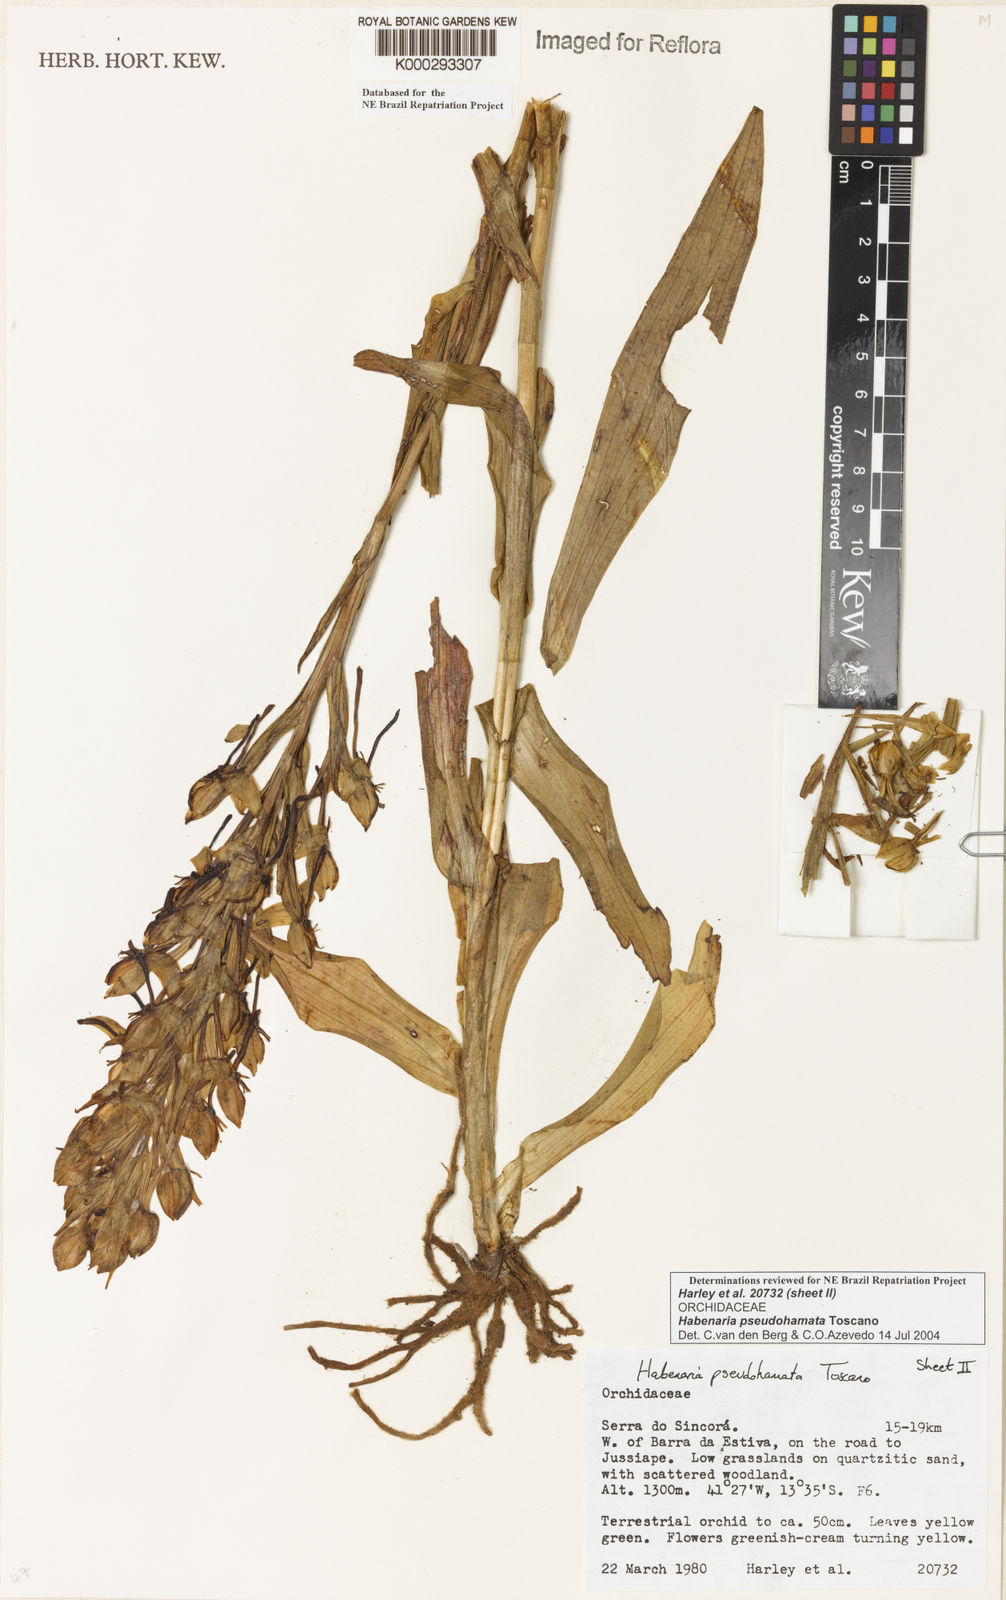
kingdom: Plantae
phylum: Tracheophyta
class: Liliopsida
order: Asparagales
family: Orchidaceae
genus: Habenaria
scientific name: Habenaria pseudohamata
